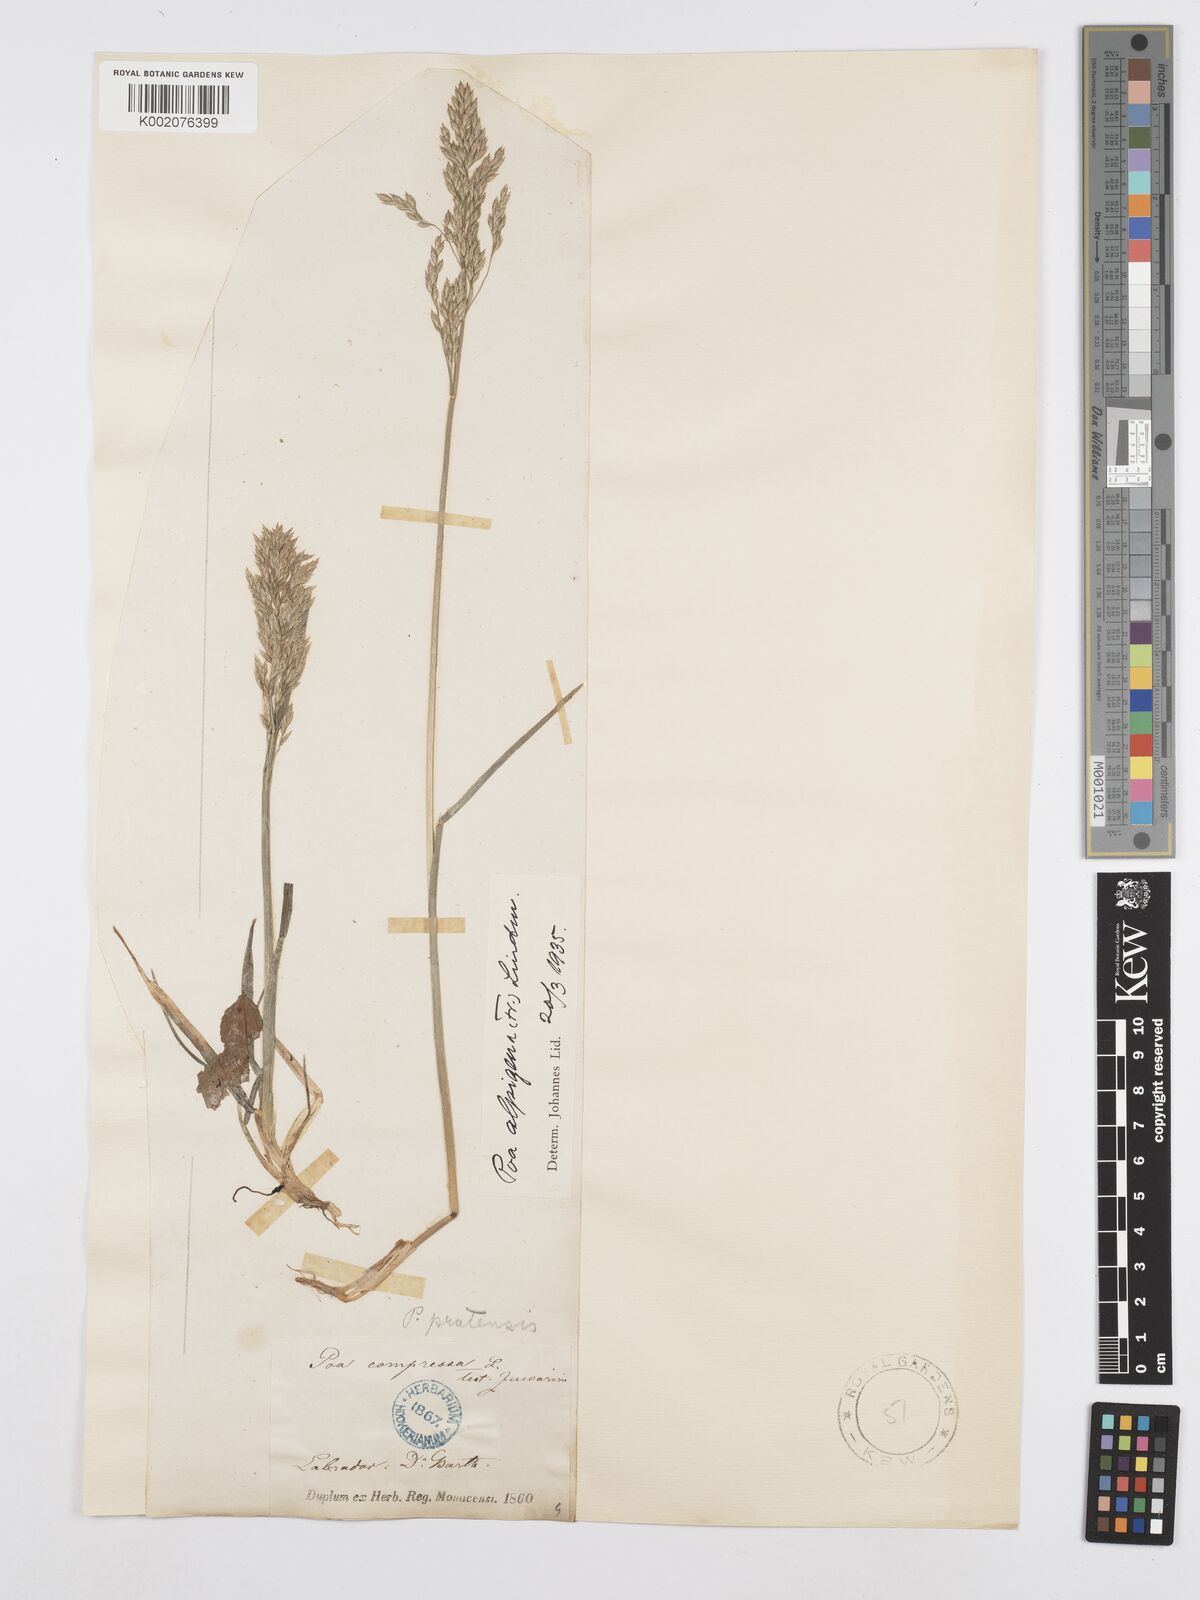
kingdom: Plantae
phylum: Tracheophyta
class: Liliopsida
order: Poales
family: Poaceae
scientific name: Poaceae
